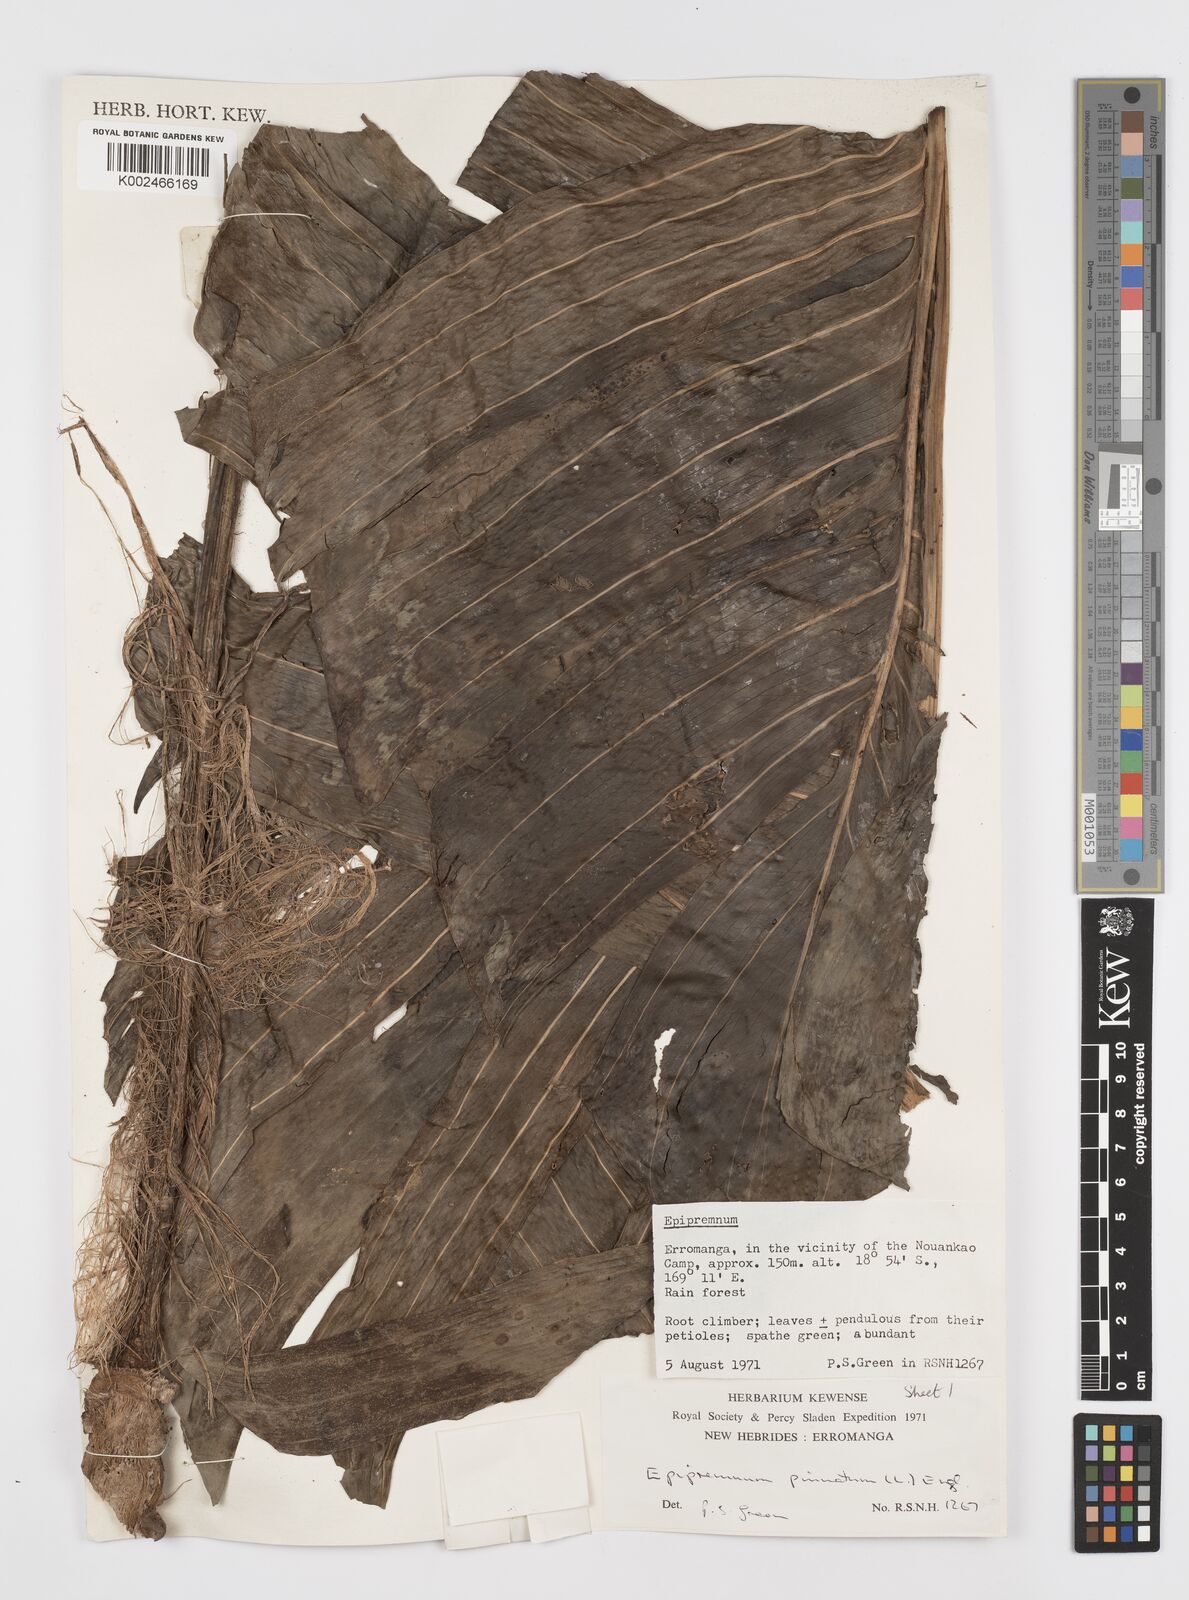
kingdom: Plantae
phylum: Tracheophyta
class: Liliopsida
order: Alismatales
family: Araceae
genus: Rhaphidophora
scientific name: Rhaphidophora korthalsii
